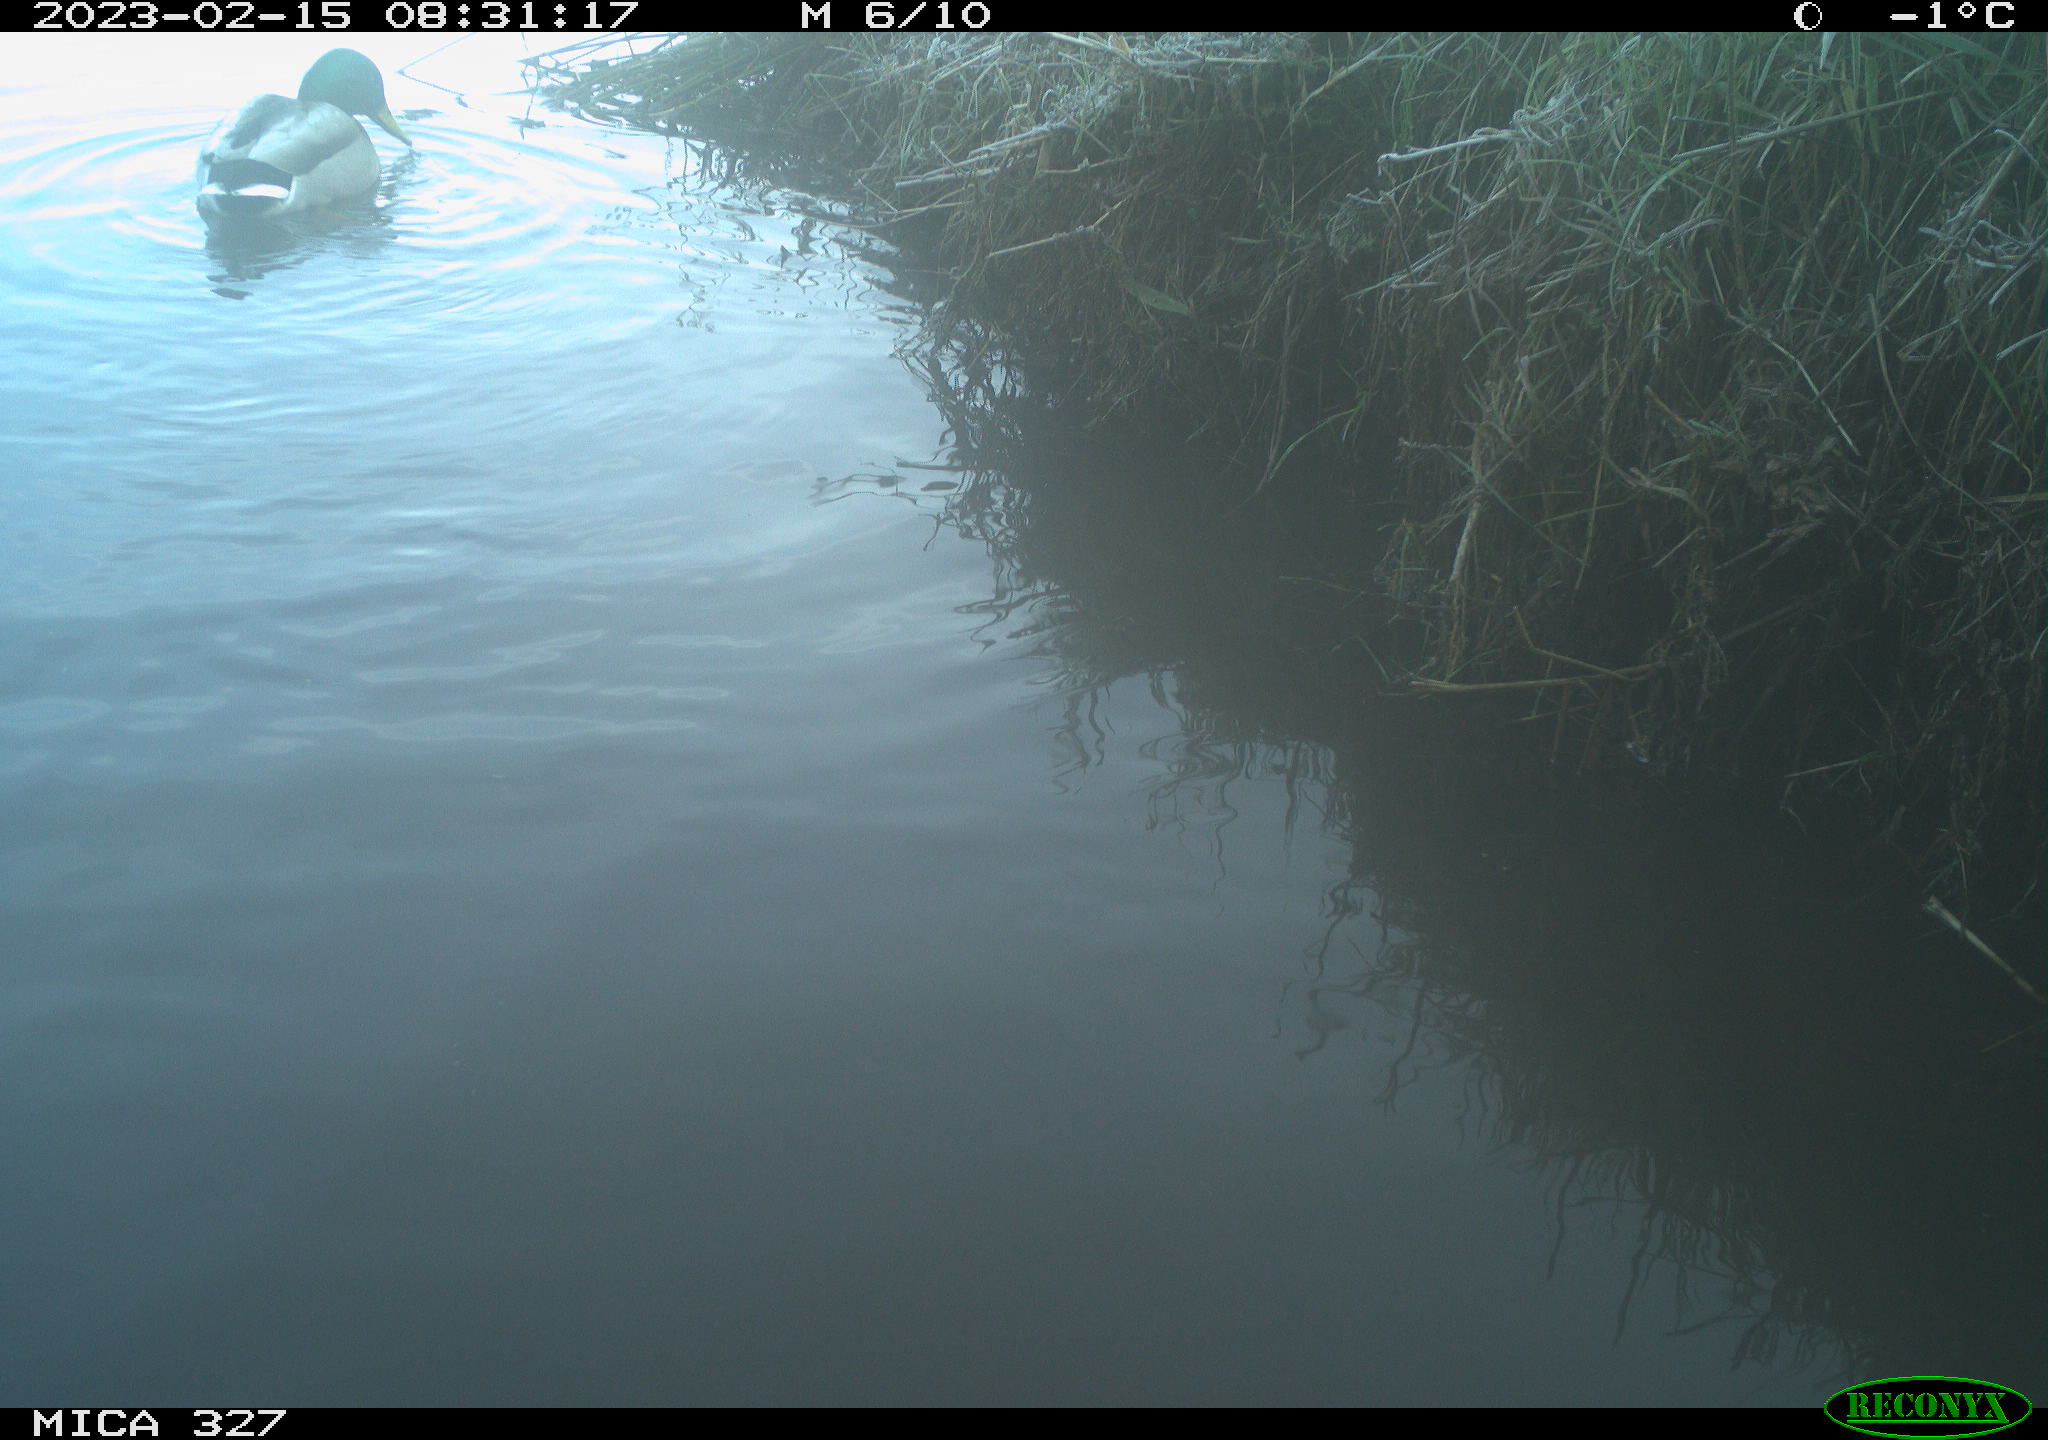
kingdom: Animalia
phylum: Chordata
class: Aves
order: Anseriformes
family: Anatidae
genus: Anas
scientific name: Anas
